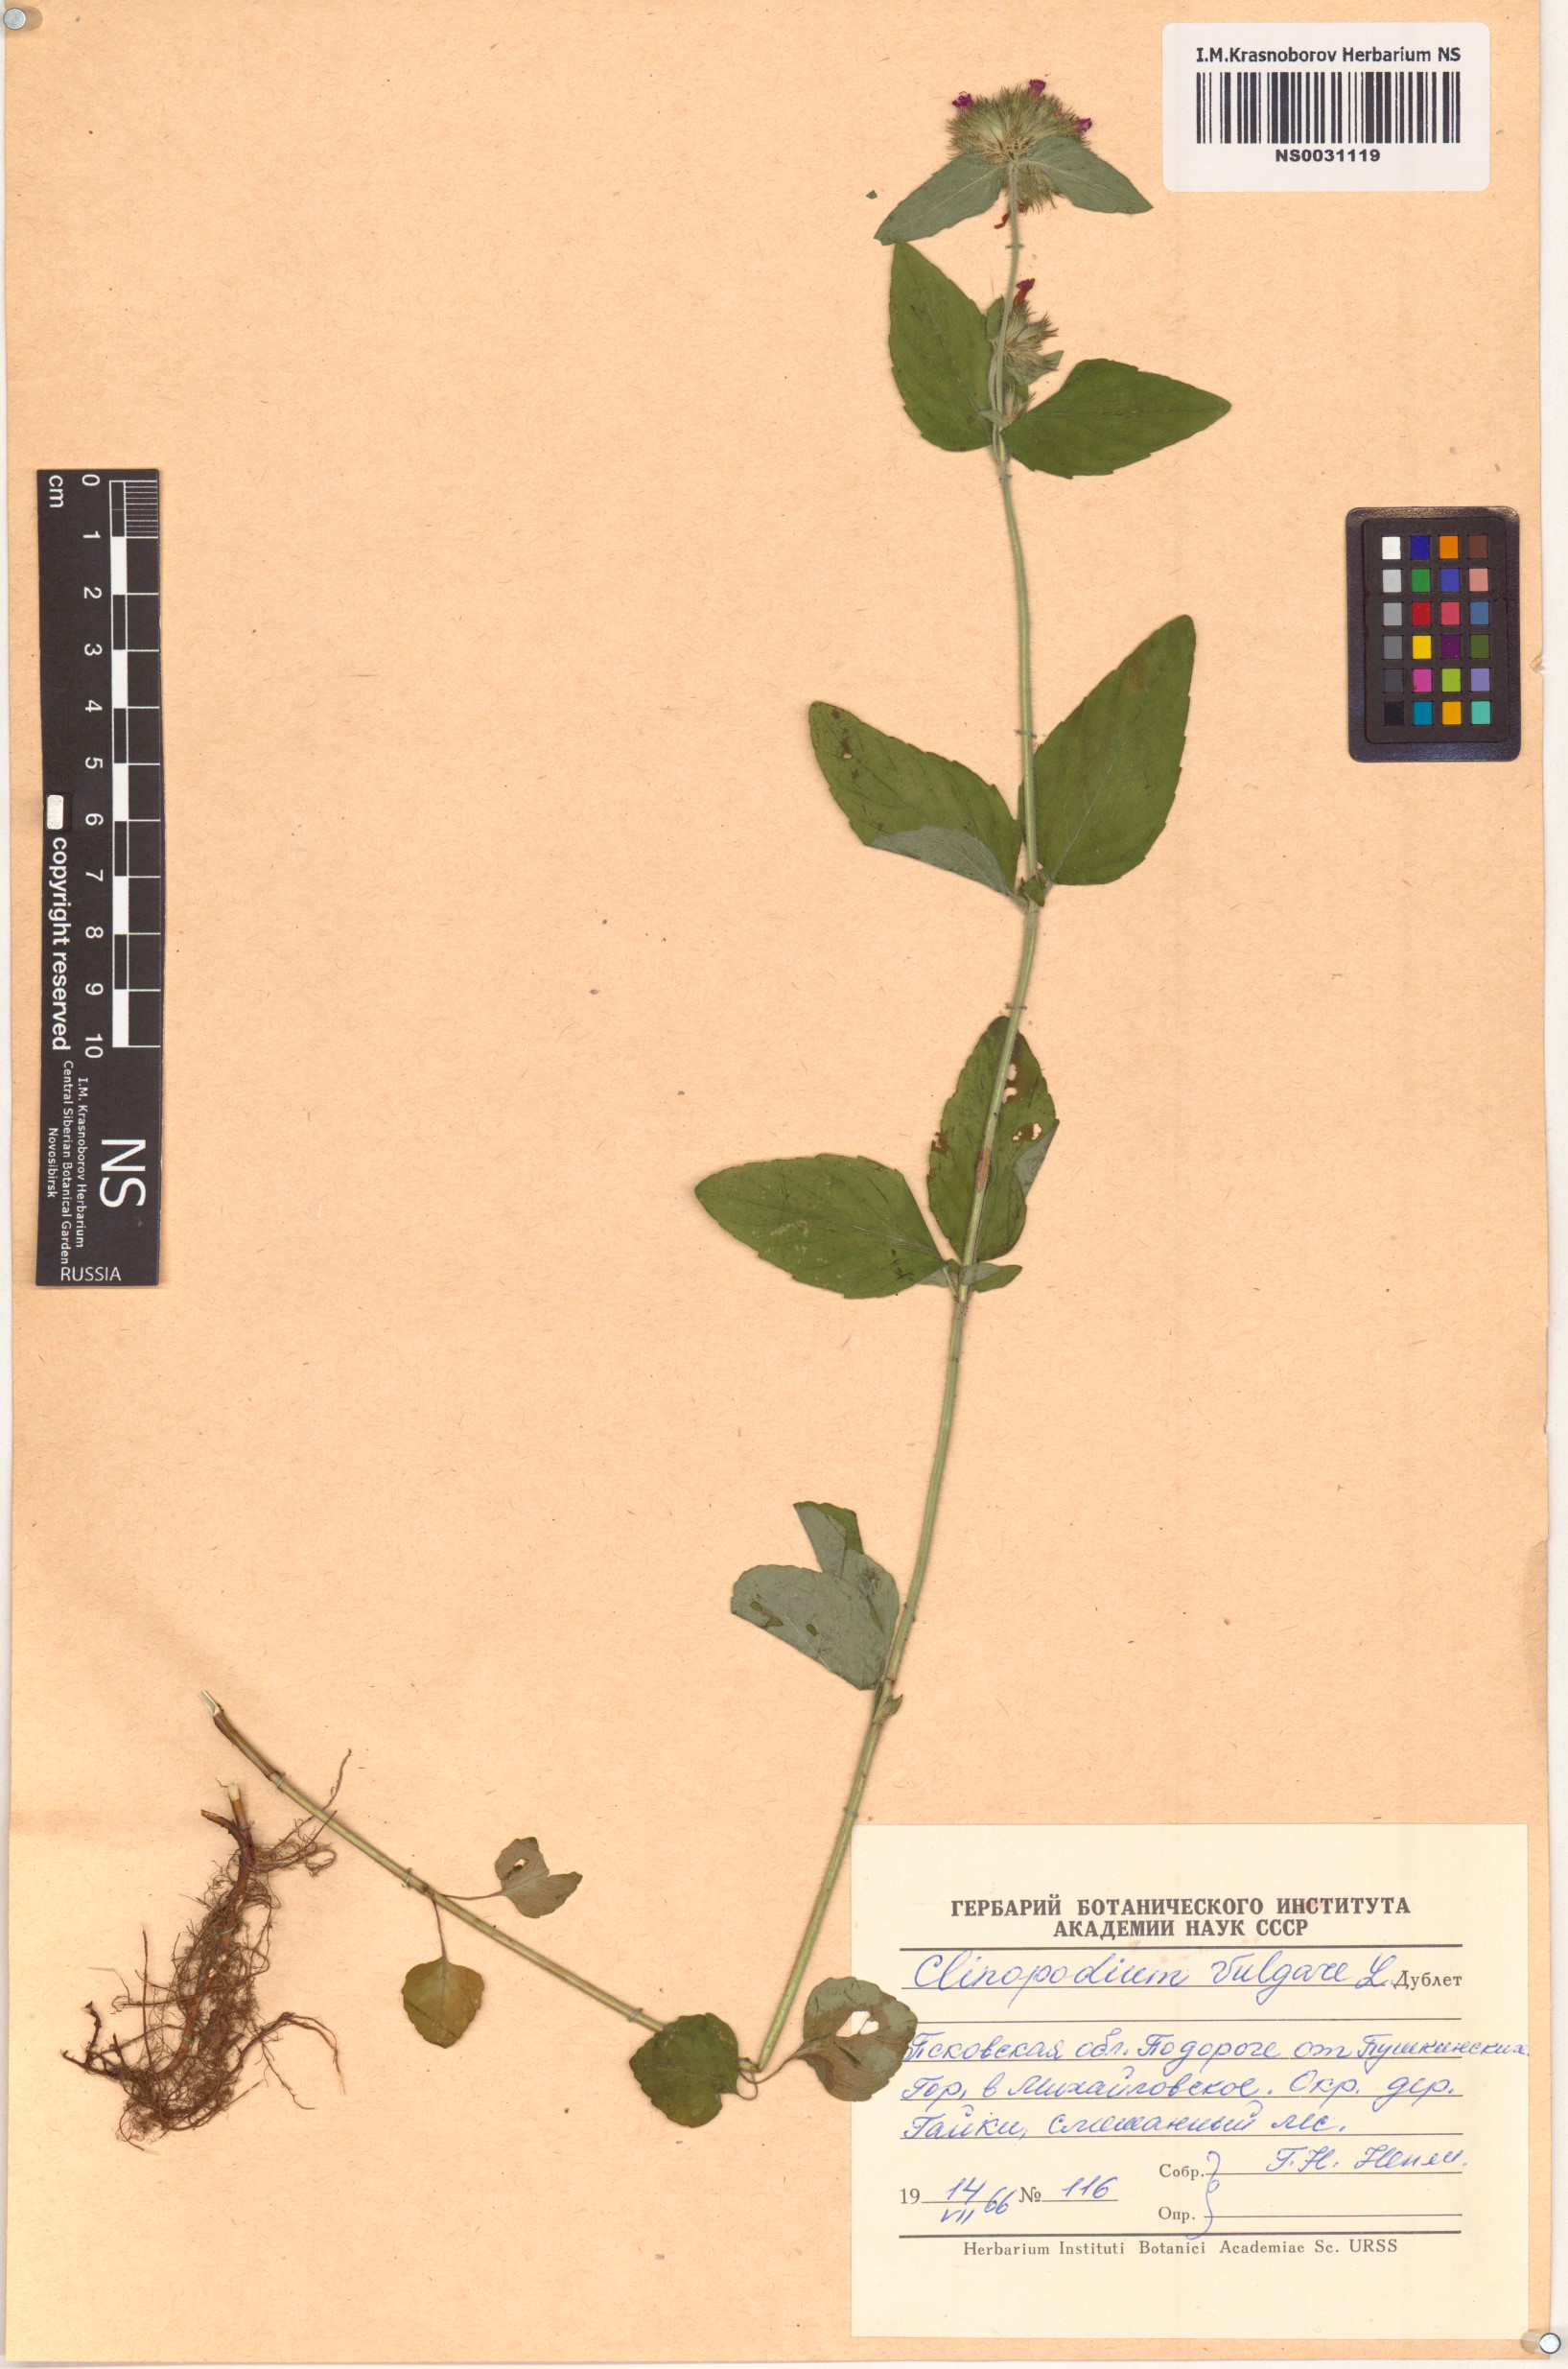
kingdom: Plantae
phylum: Tracheophyta
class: Magnoliopsida
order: Lamiales
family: Lamiaceae
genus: Clinopodium
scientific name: Clinopodium vulgare
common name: Wild basil
